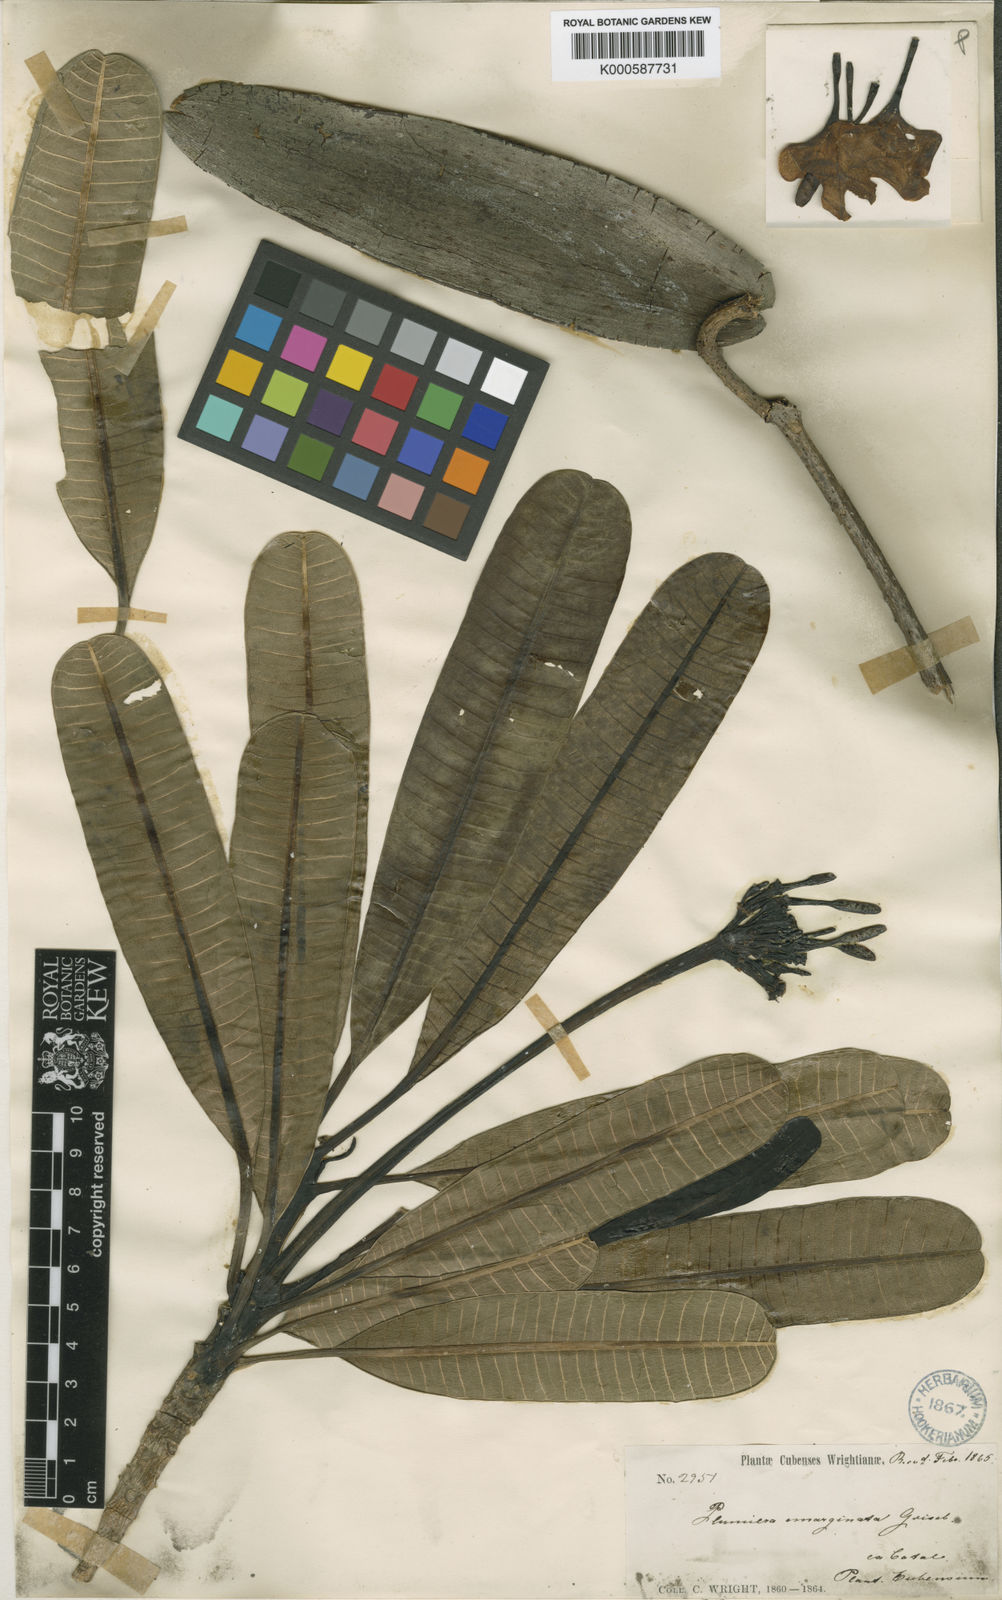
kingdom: Plantae
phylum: Tracheophyta
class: Magnoliopsida
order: Gentianales
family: Apocynaceae
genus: Plumeria
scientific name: Plumeria obtusa
